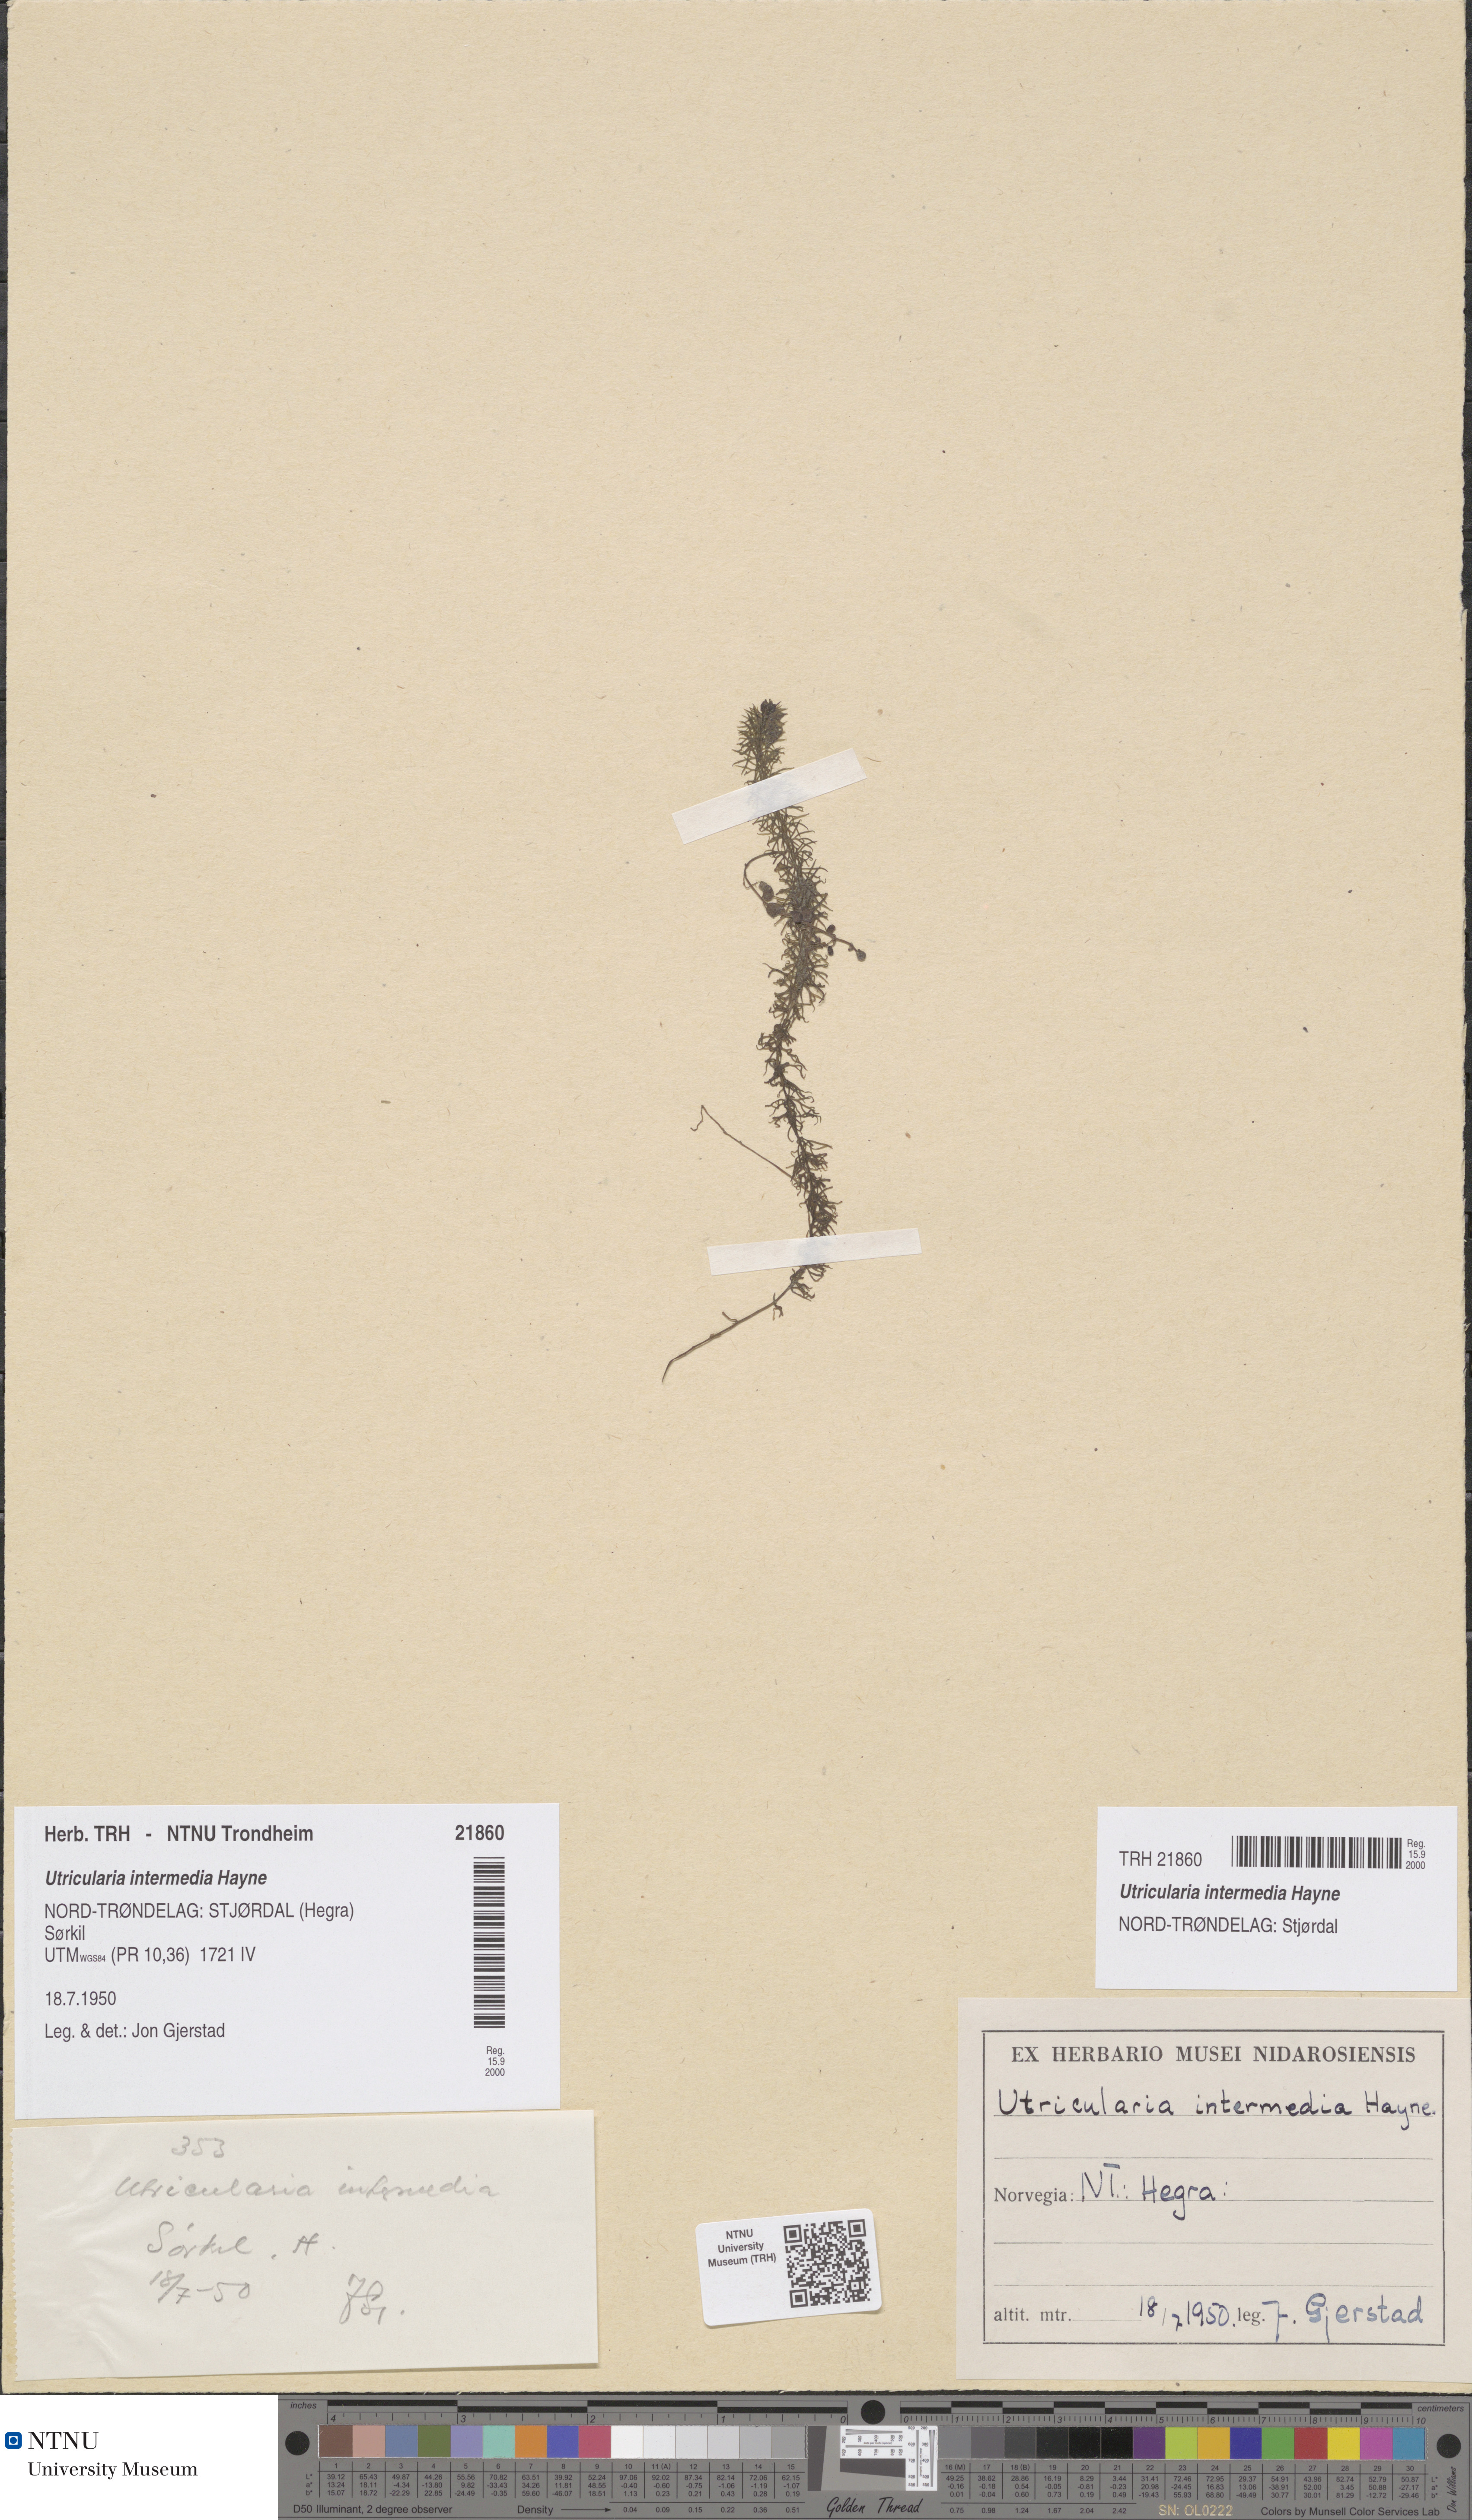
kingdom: Plantae
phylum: Tracheophyta
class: Magnoliopsida
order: Lamiales
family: Lentibulariaceae
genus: Utricularia
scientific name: Utricularia intermedia
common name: Intermediate bladderwort
